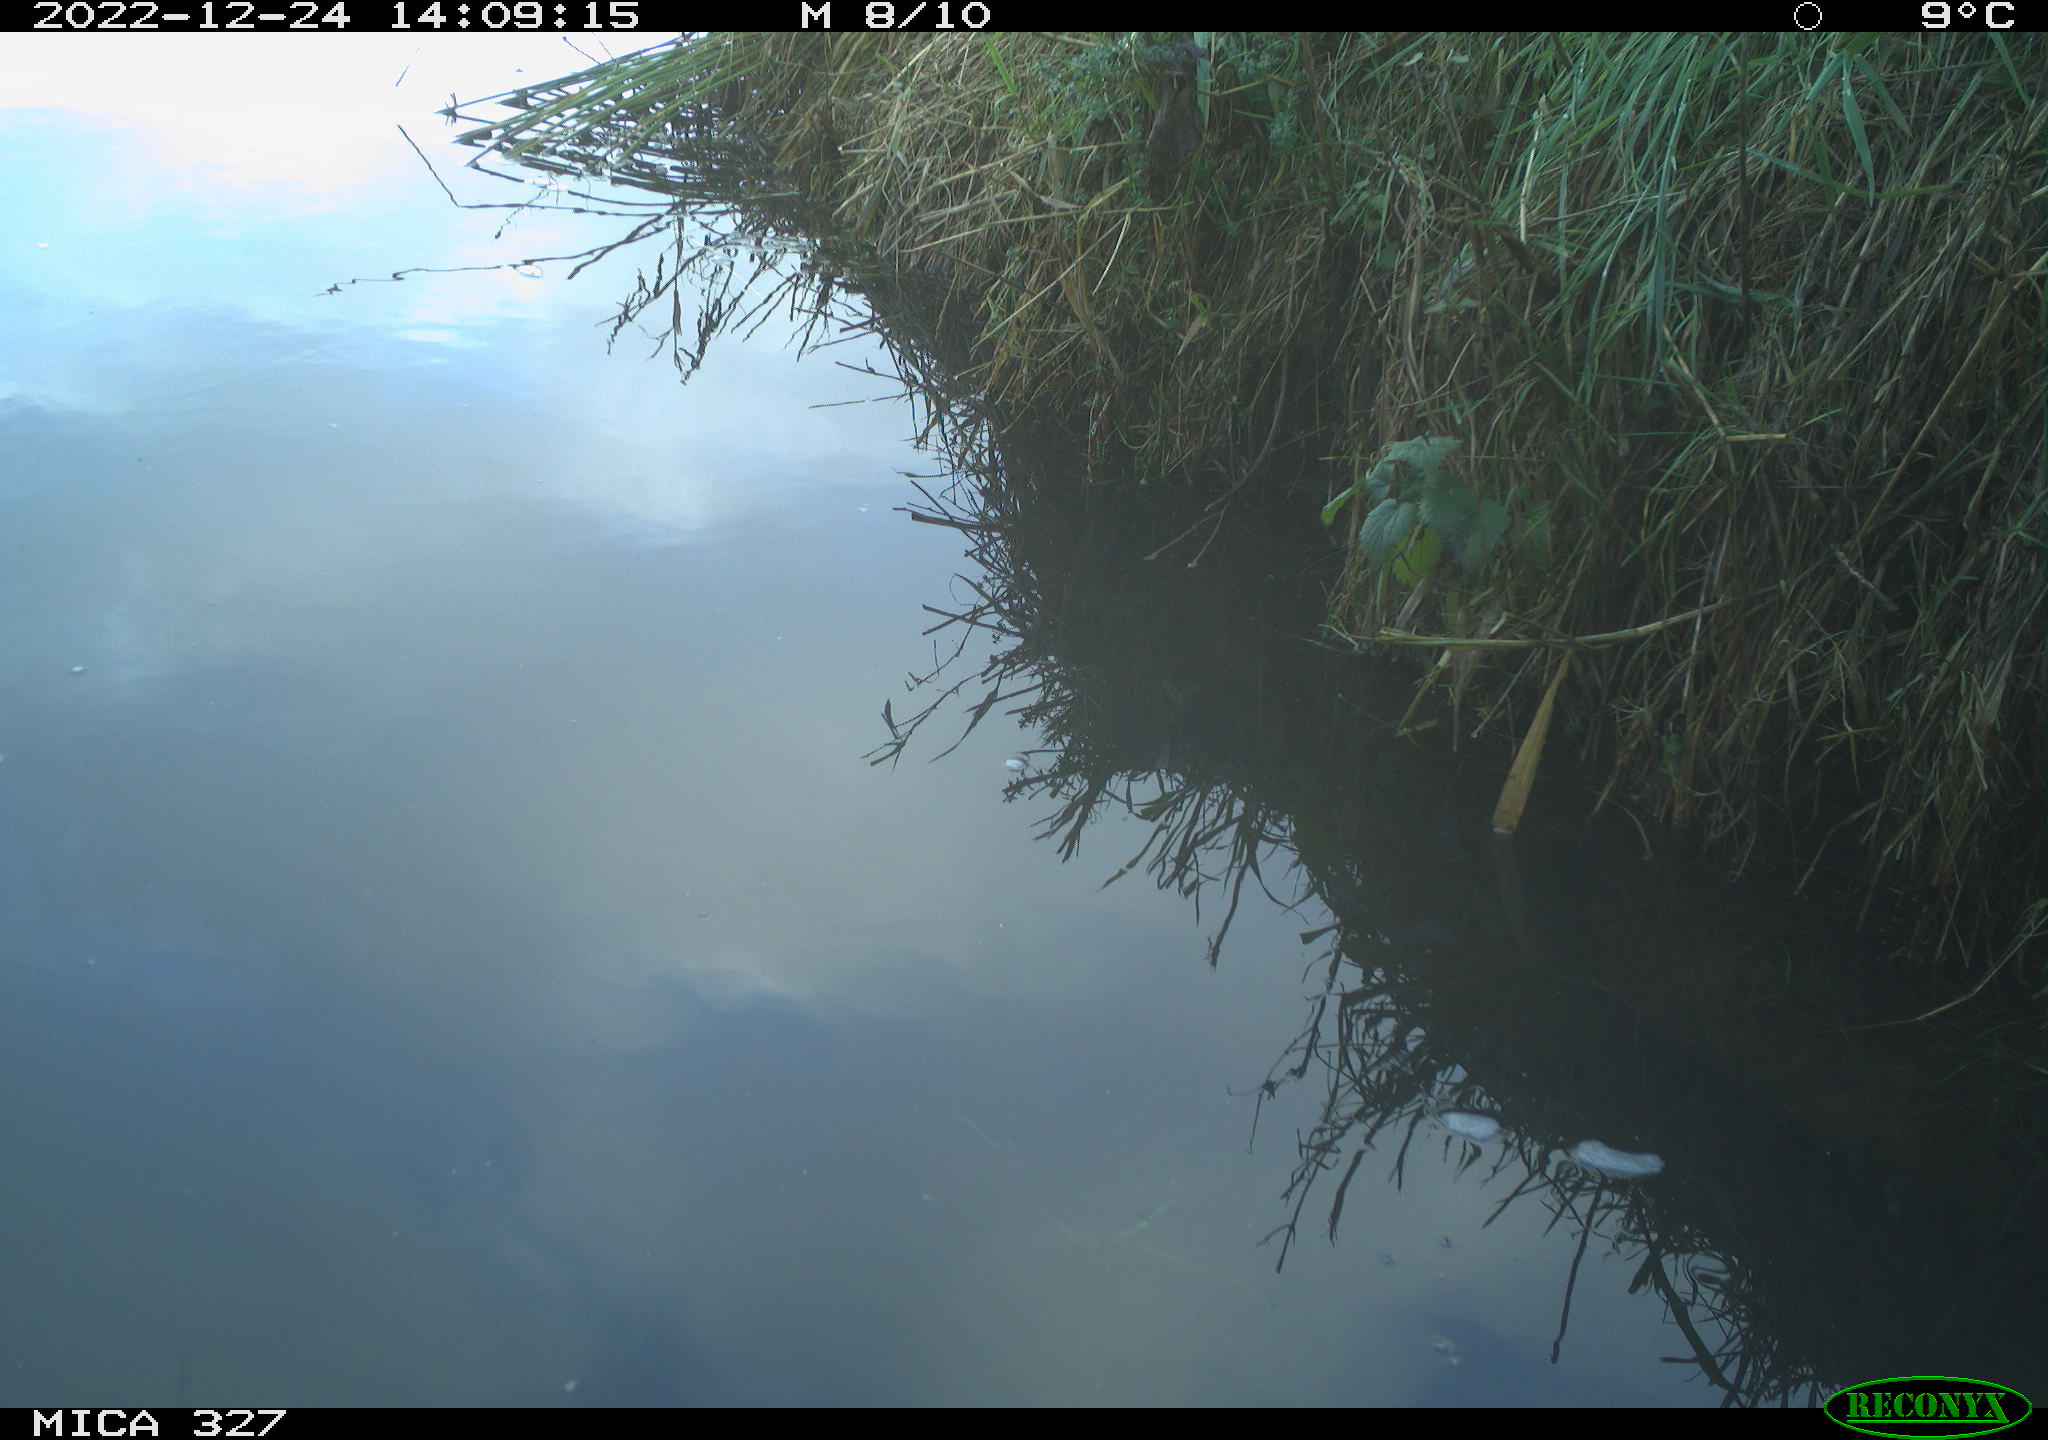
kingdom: Animalia
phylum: Chordata
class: Aves
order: Gruiformes
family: Rallidae
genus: Gallinula
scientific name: Gallinula chloropus
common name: Common moorhen
